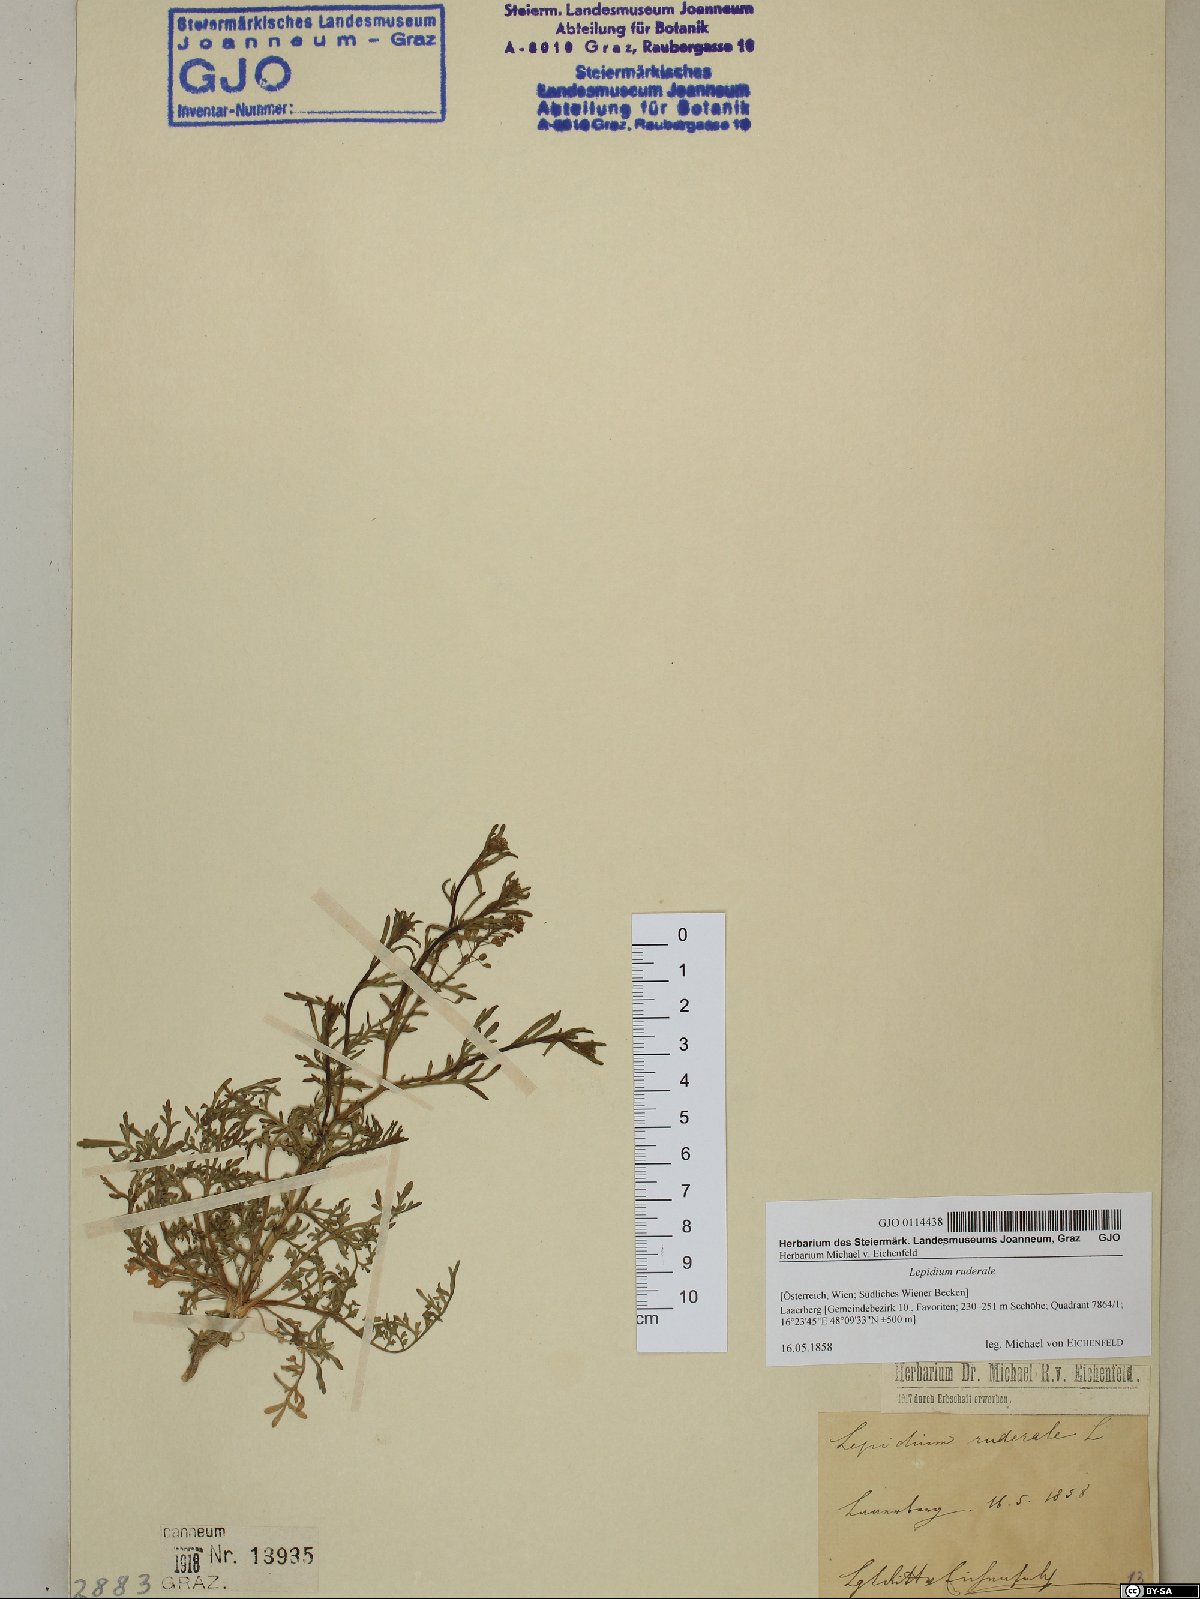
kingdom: Plantae
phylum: Tracheophyta
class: Magnoliopsida
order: Brassicales
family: Brassicaceae
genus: Lepidium
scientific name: Lepidium ruderale
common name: Narrow-leaved pepperwort
